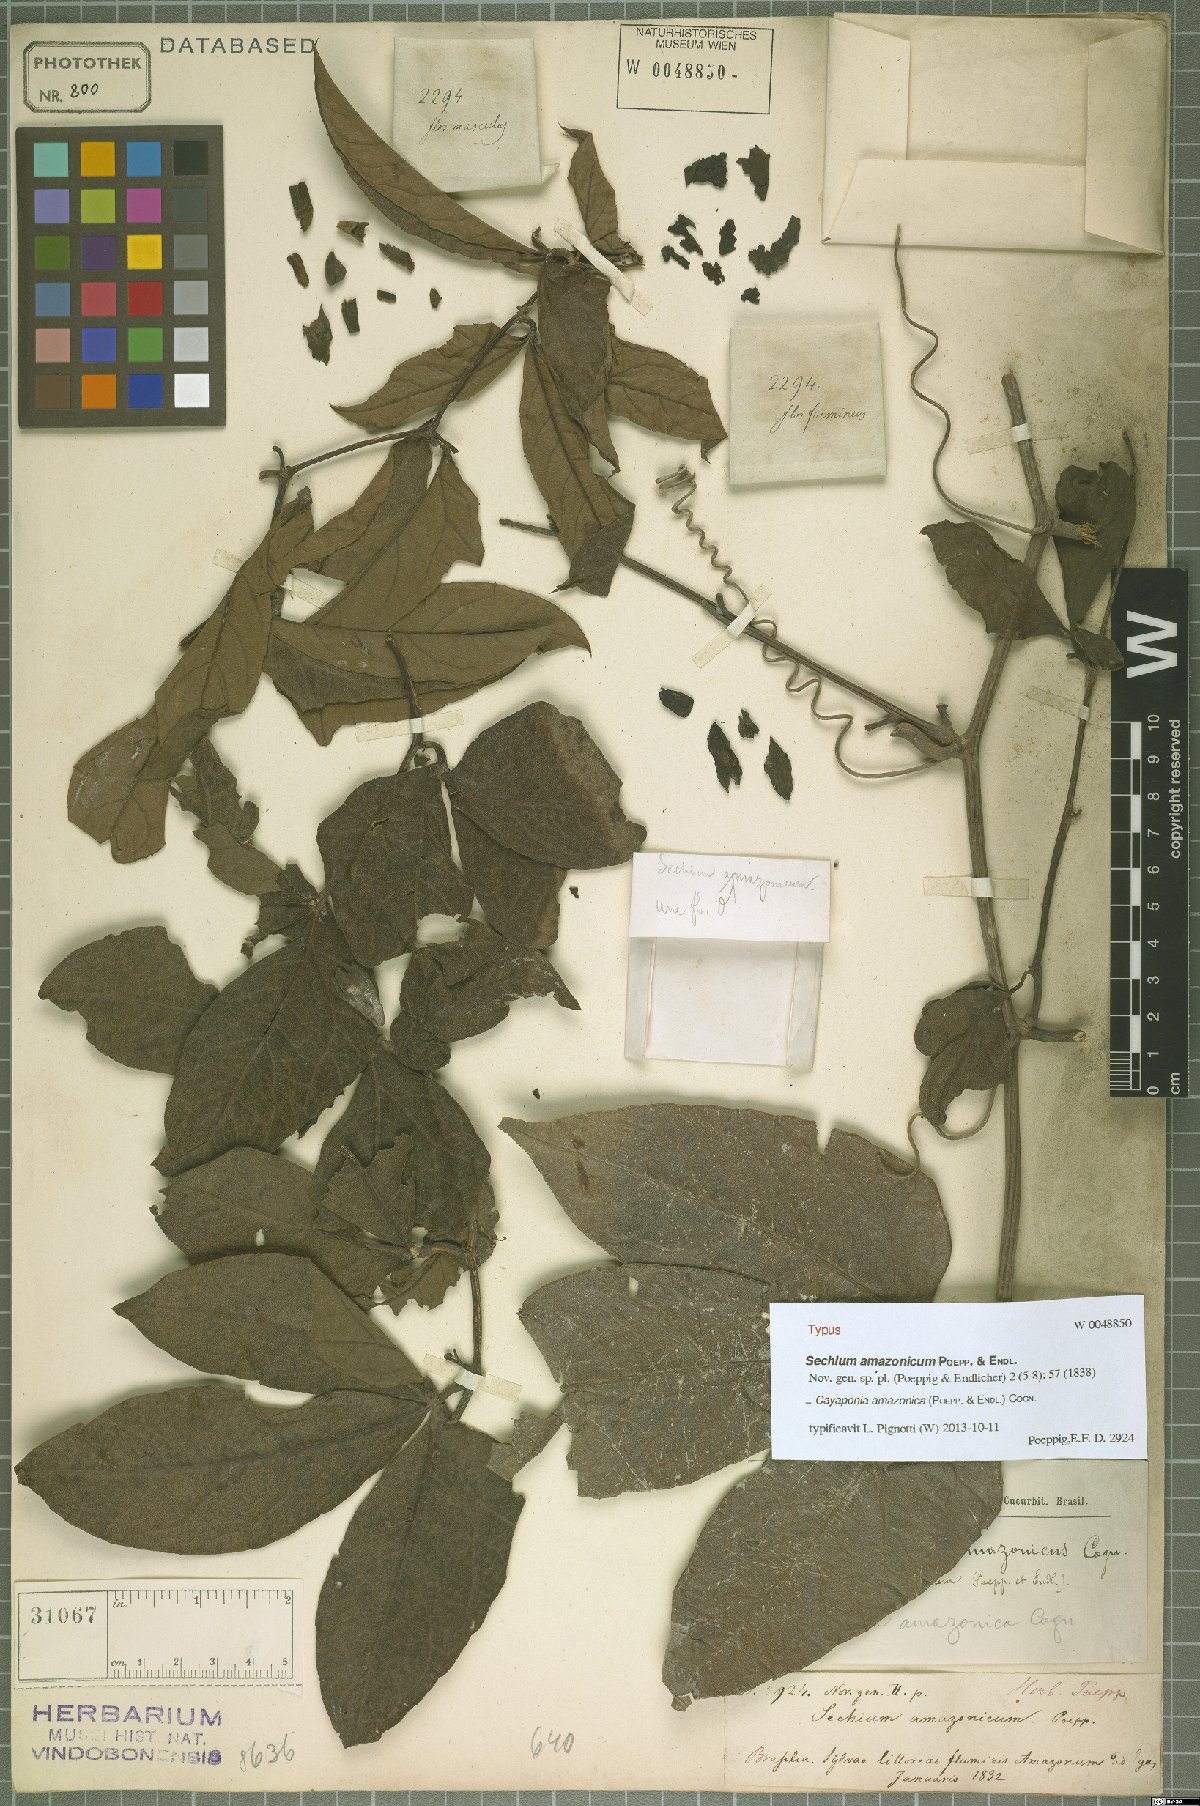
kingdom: Plantae
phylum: Tracheophyta
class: Magnoliopsida
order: Cucurbitales
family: Cucurbitaceae
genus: Cayaponia
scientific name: Cayaponia amazonica
